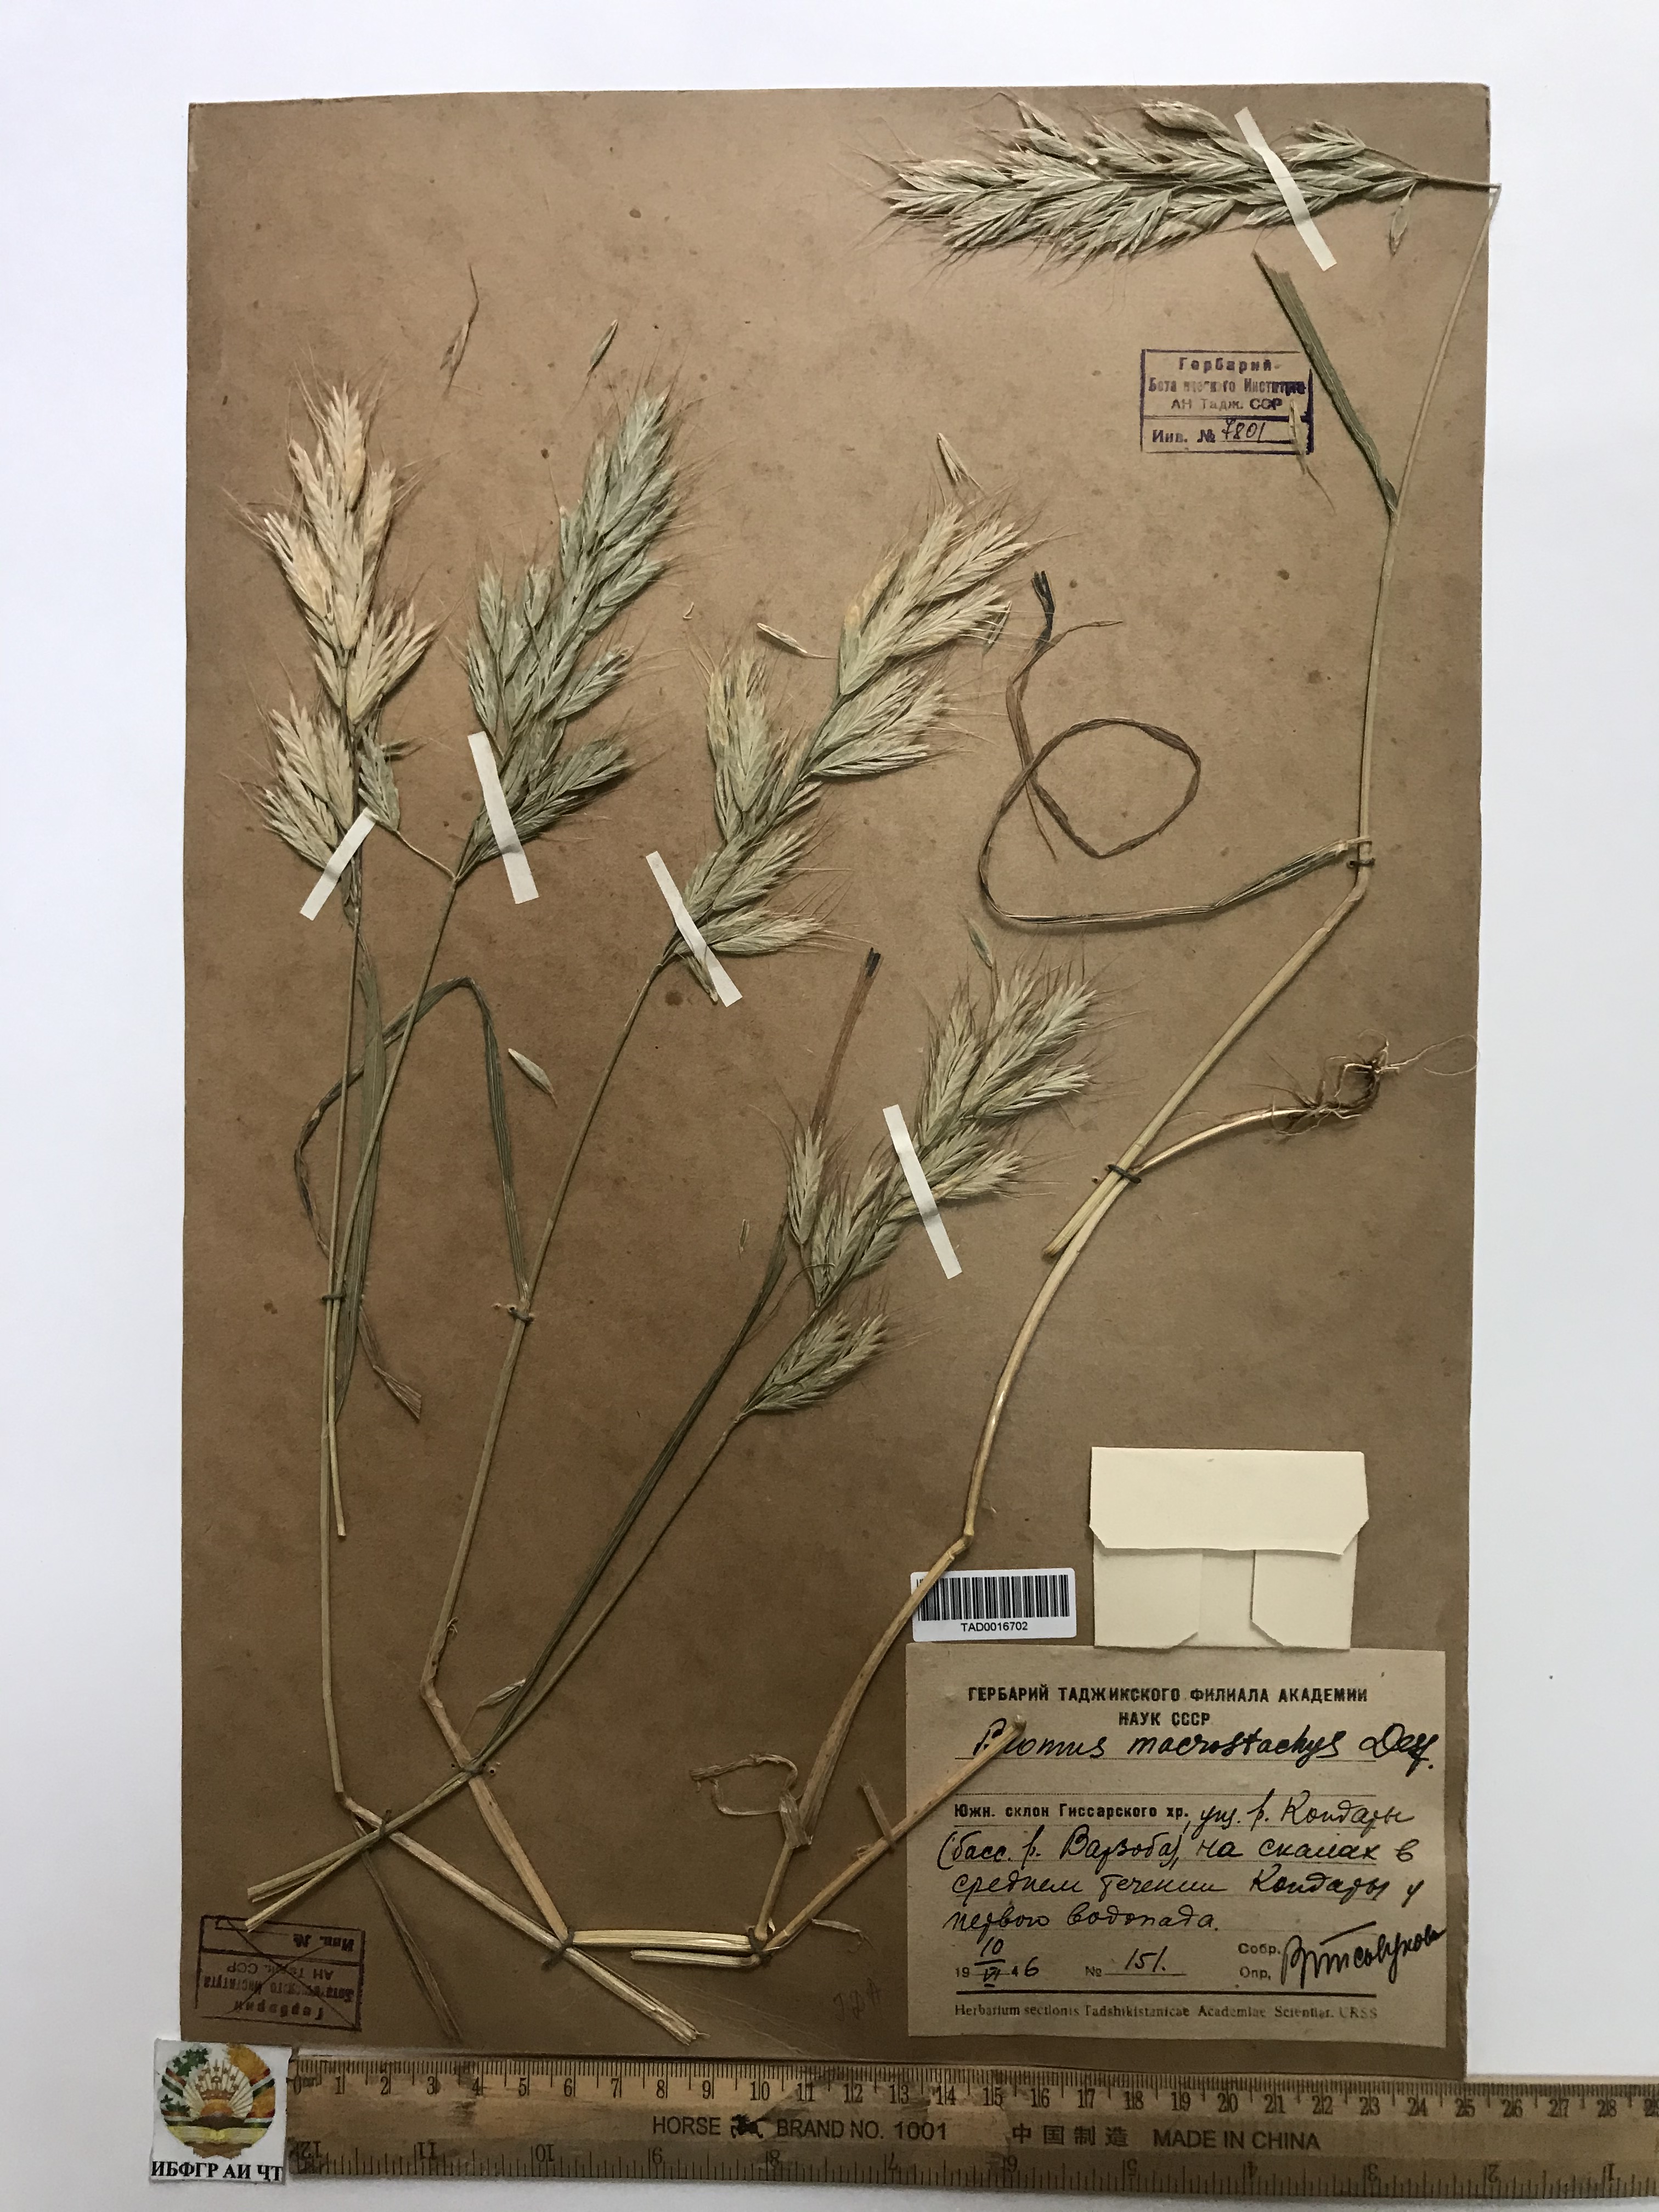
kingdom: Plantae
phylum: Tracheophyta
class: Liliopsida
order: Poales
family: Poaceae
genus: Bromus
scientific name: Bromus lanceolatus
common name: Mediterranean brome
